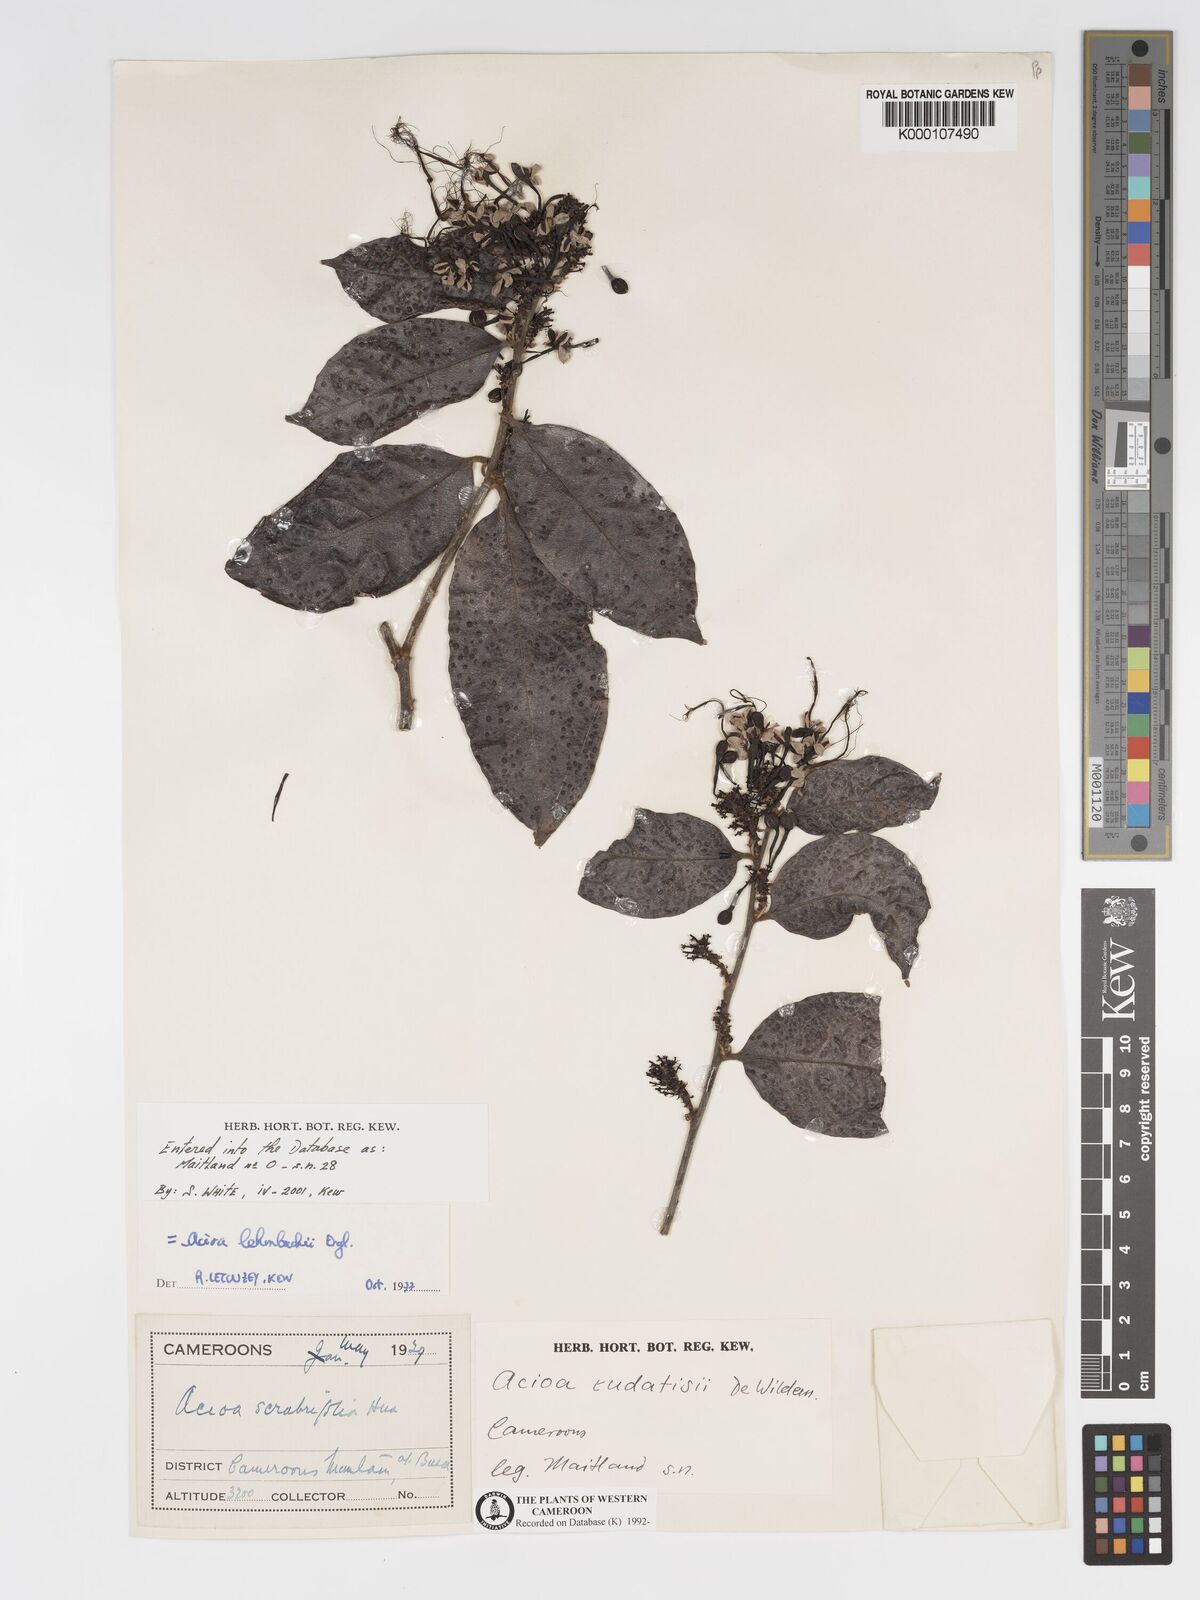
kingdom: Plantae
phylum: Tracheophyta
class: Magnoliopsida
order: Malpighiales
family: Chrysobalanaceae
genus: Dactyladenia
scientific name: Dactyladenia lehmbachii
